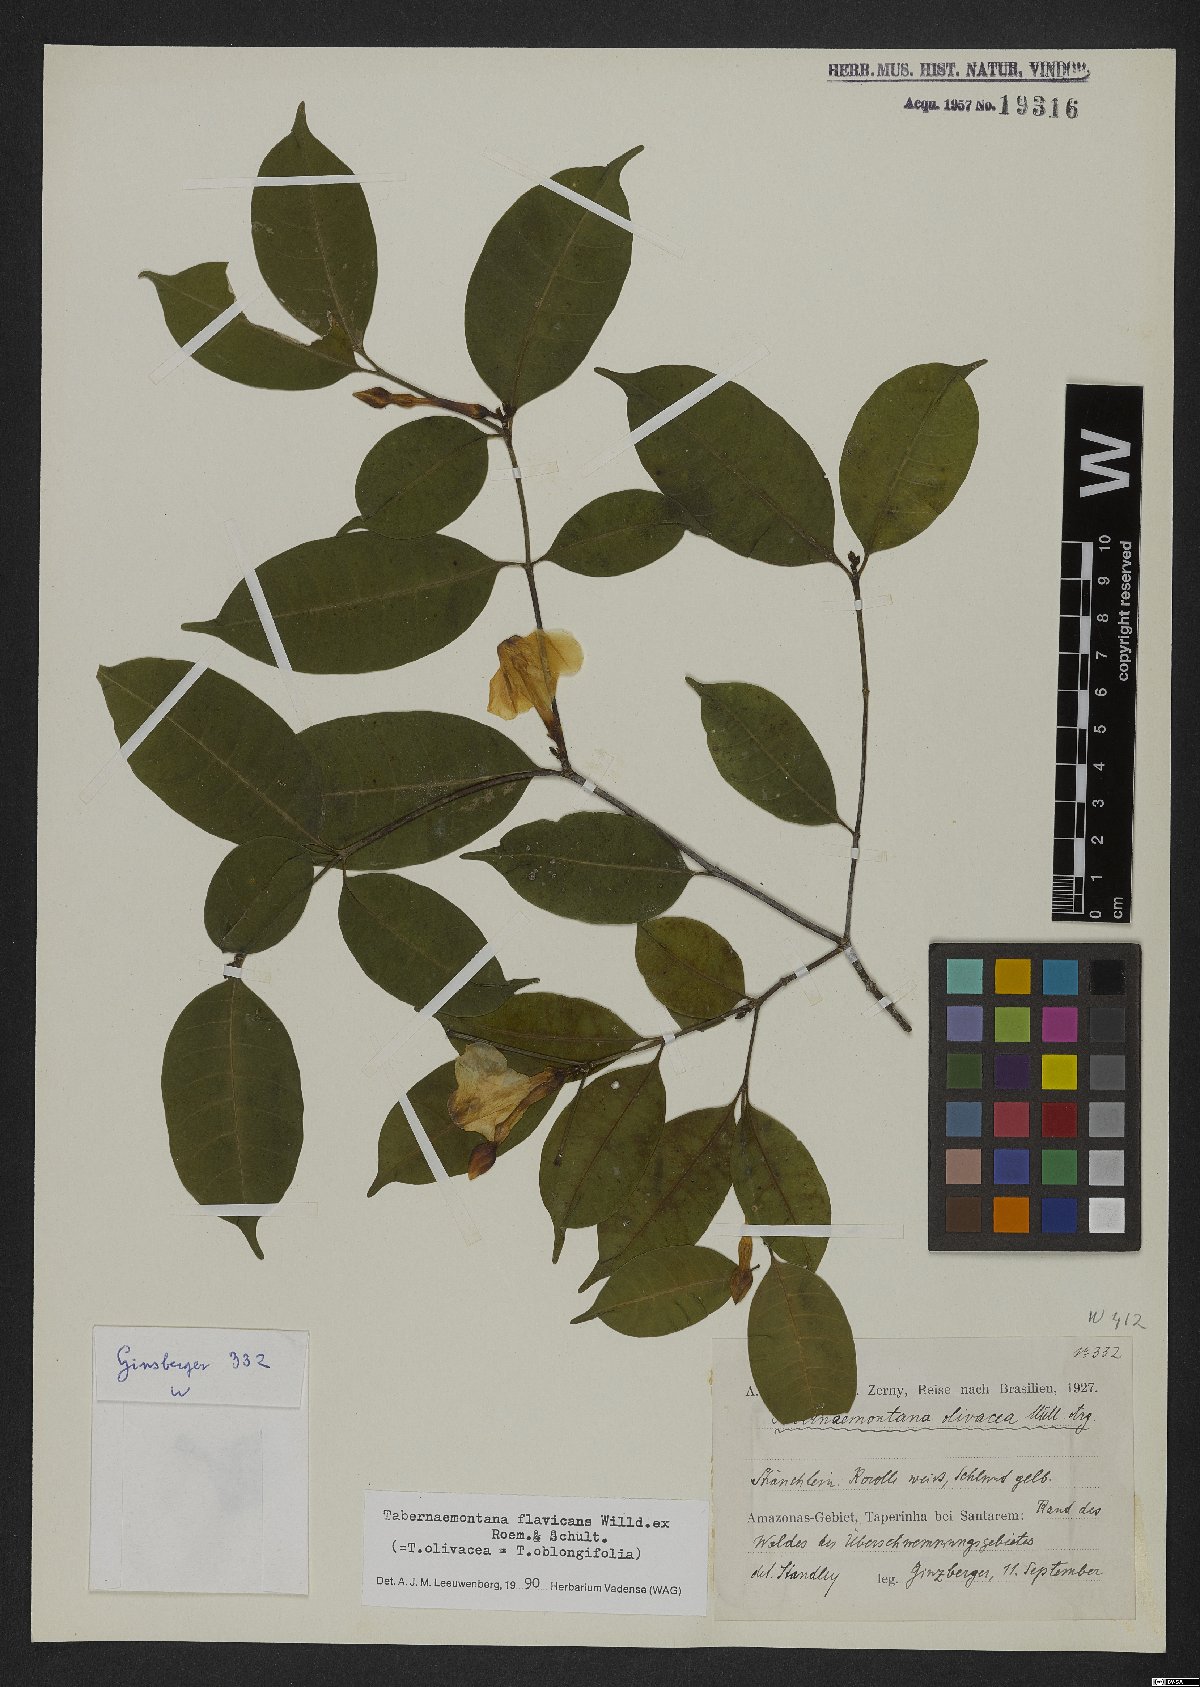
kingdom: Plantae
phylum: Tracheophyta
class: Magnoliopsida
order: Gentianales
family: Apocynaceae
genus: Tabernaemontana
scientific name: Tabernaemontana flavicans
